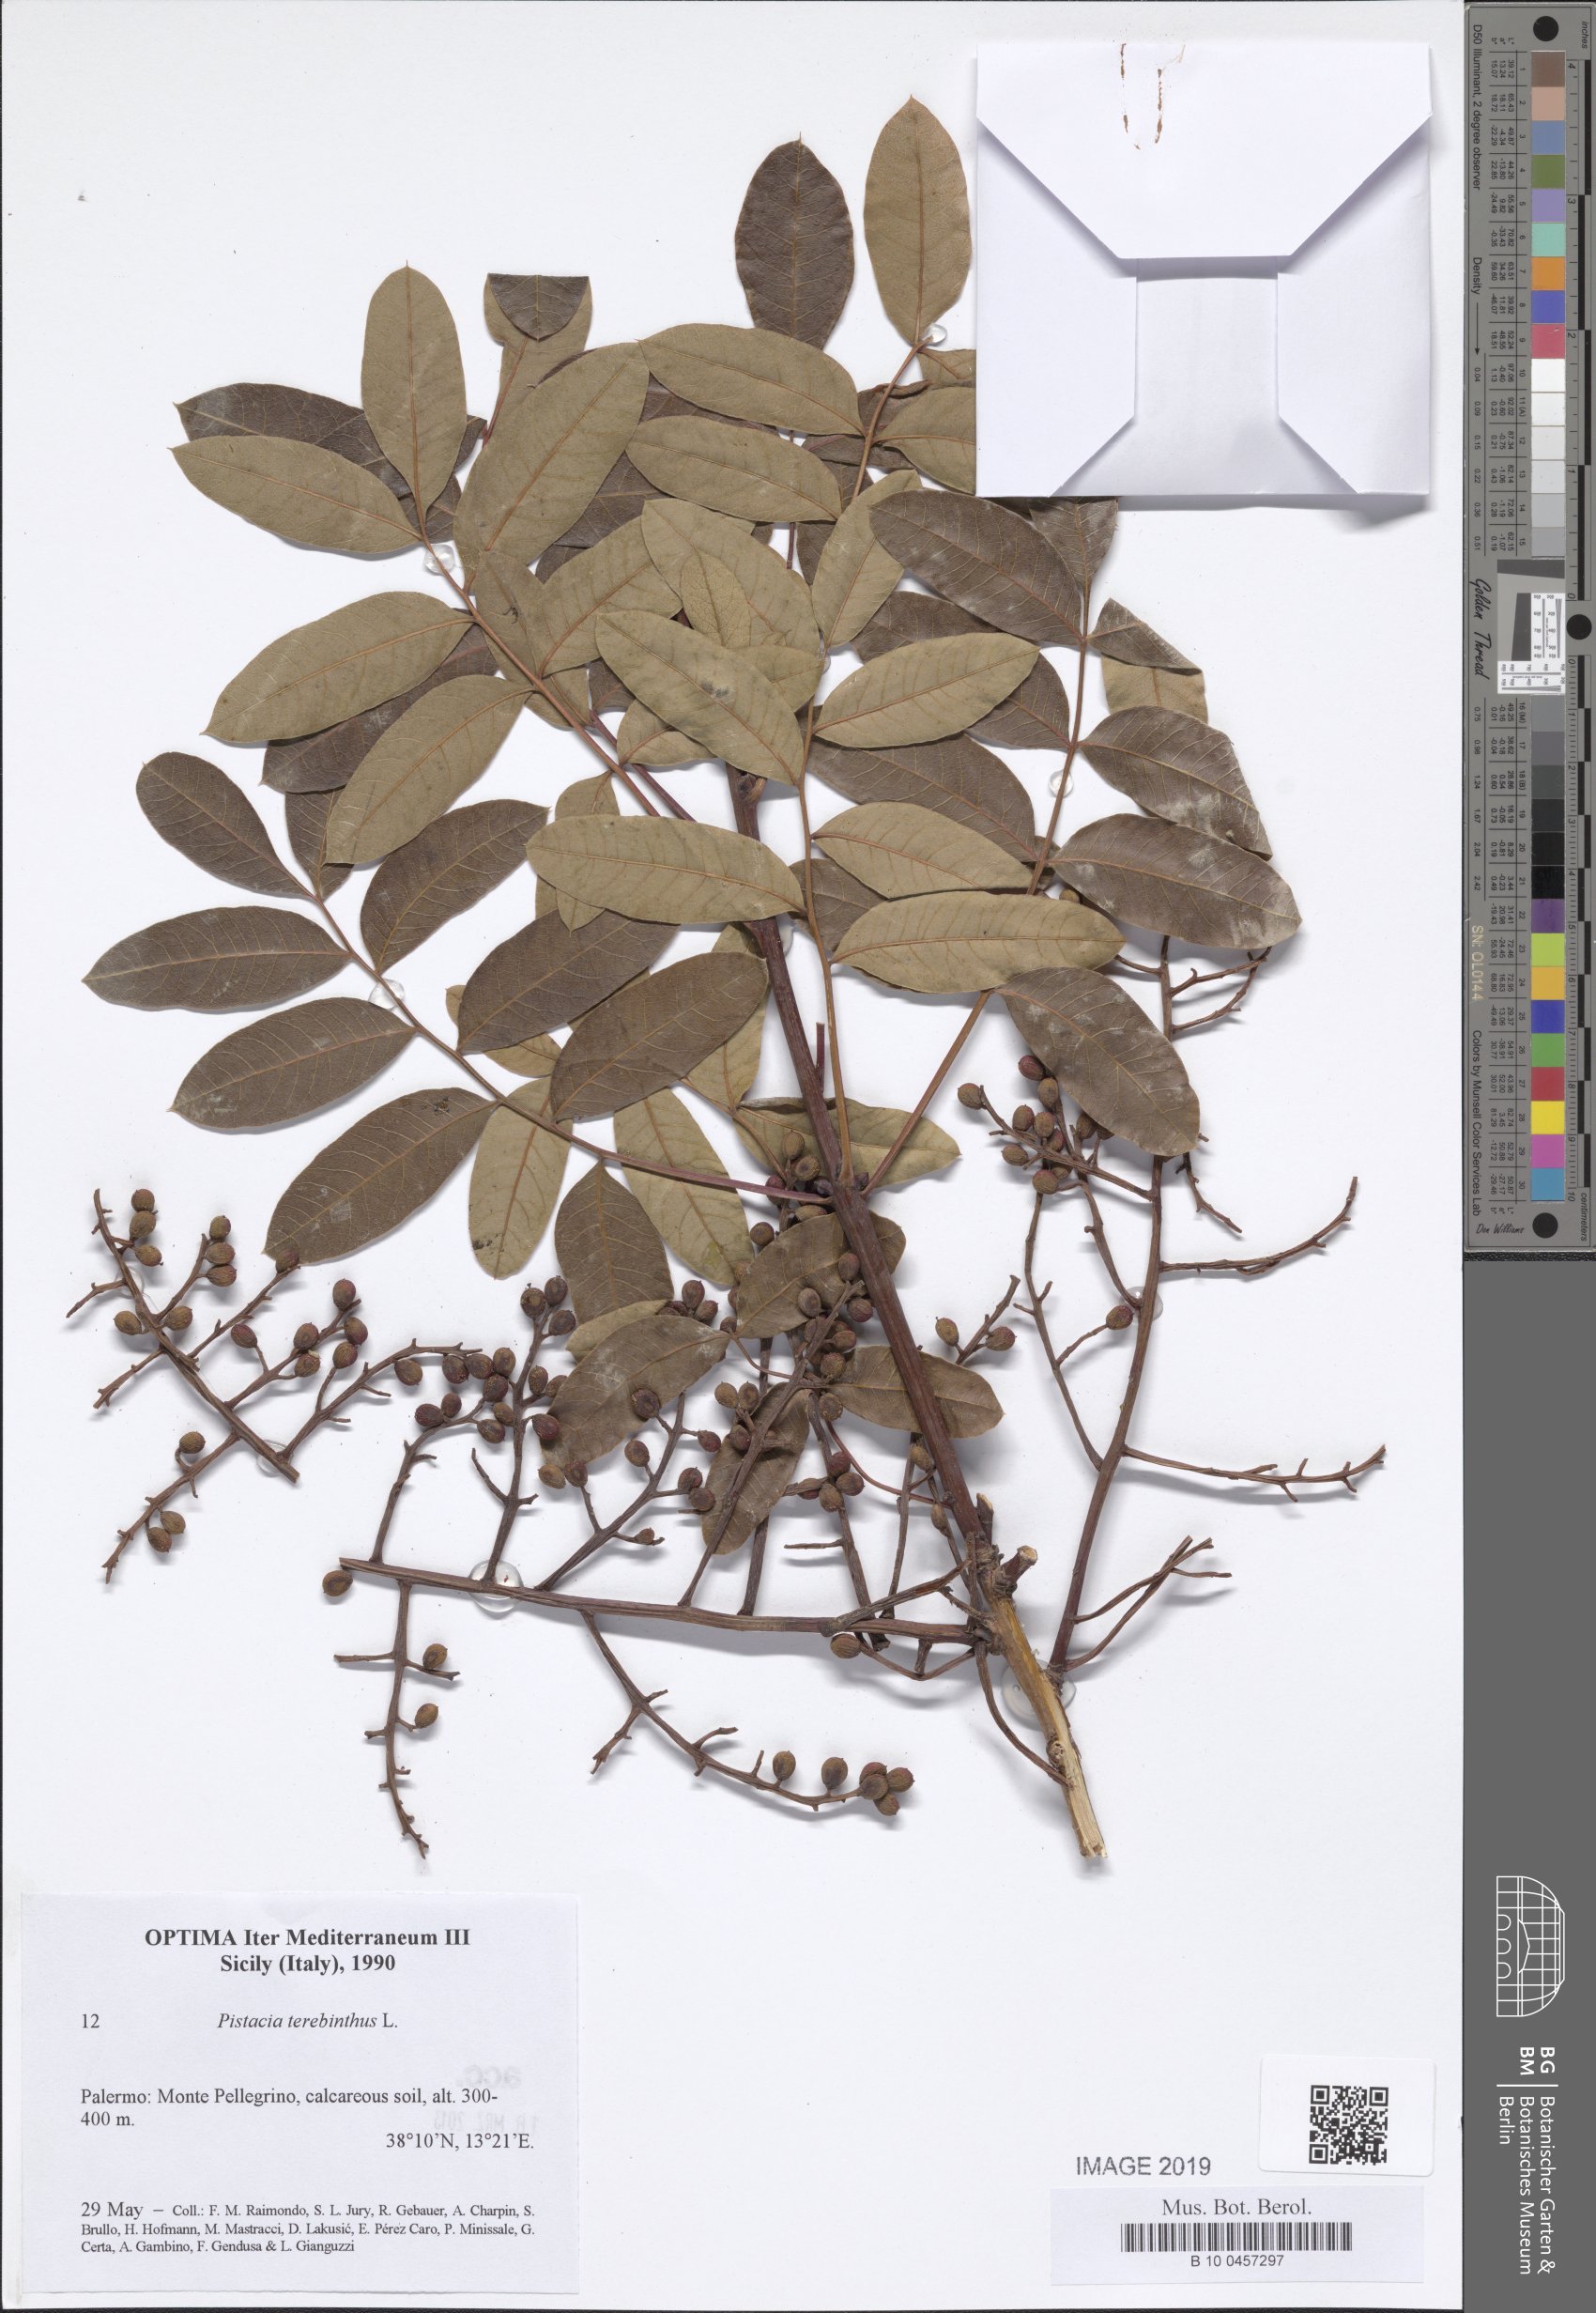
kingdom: Plantae
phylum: Tracheophyta
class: Magnoliopsida
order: Sapindales
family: Anacardiaceae
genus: Pistacia
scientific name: Pistacia terebinthus
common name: Terebinth
